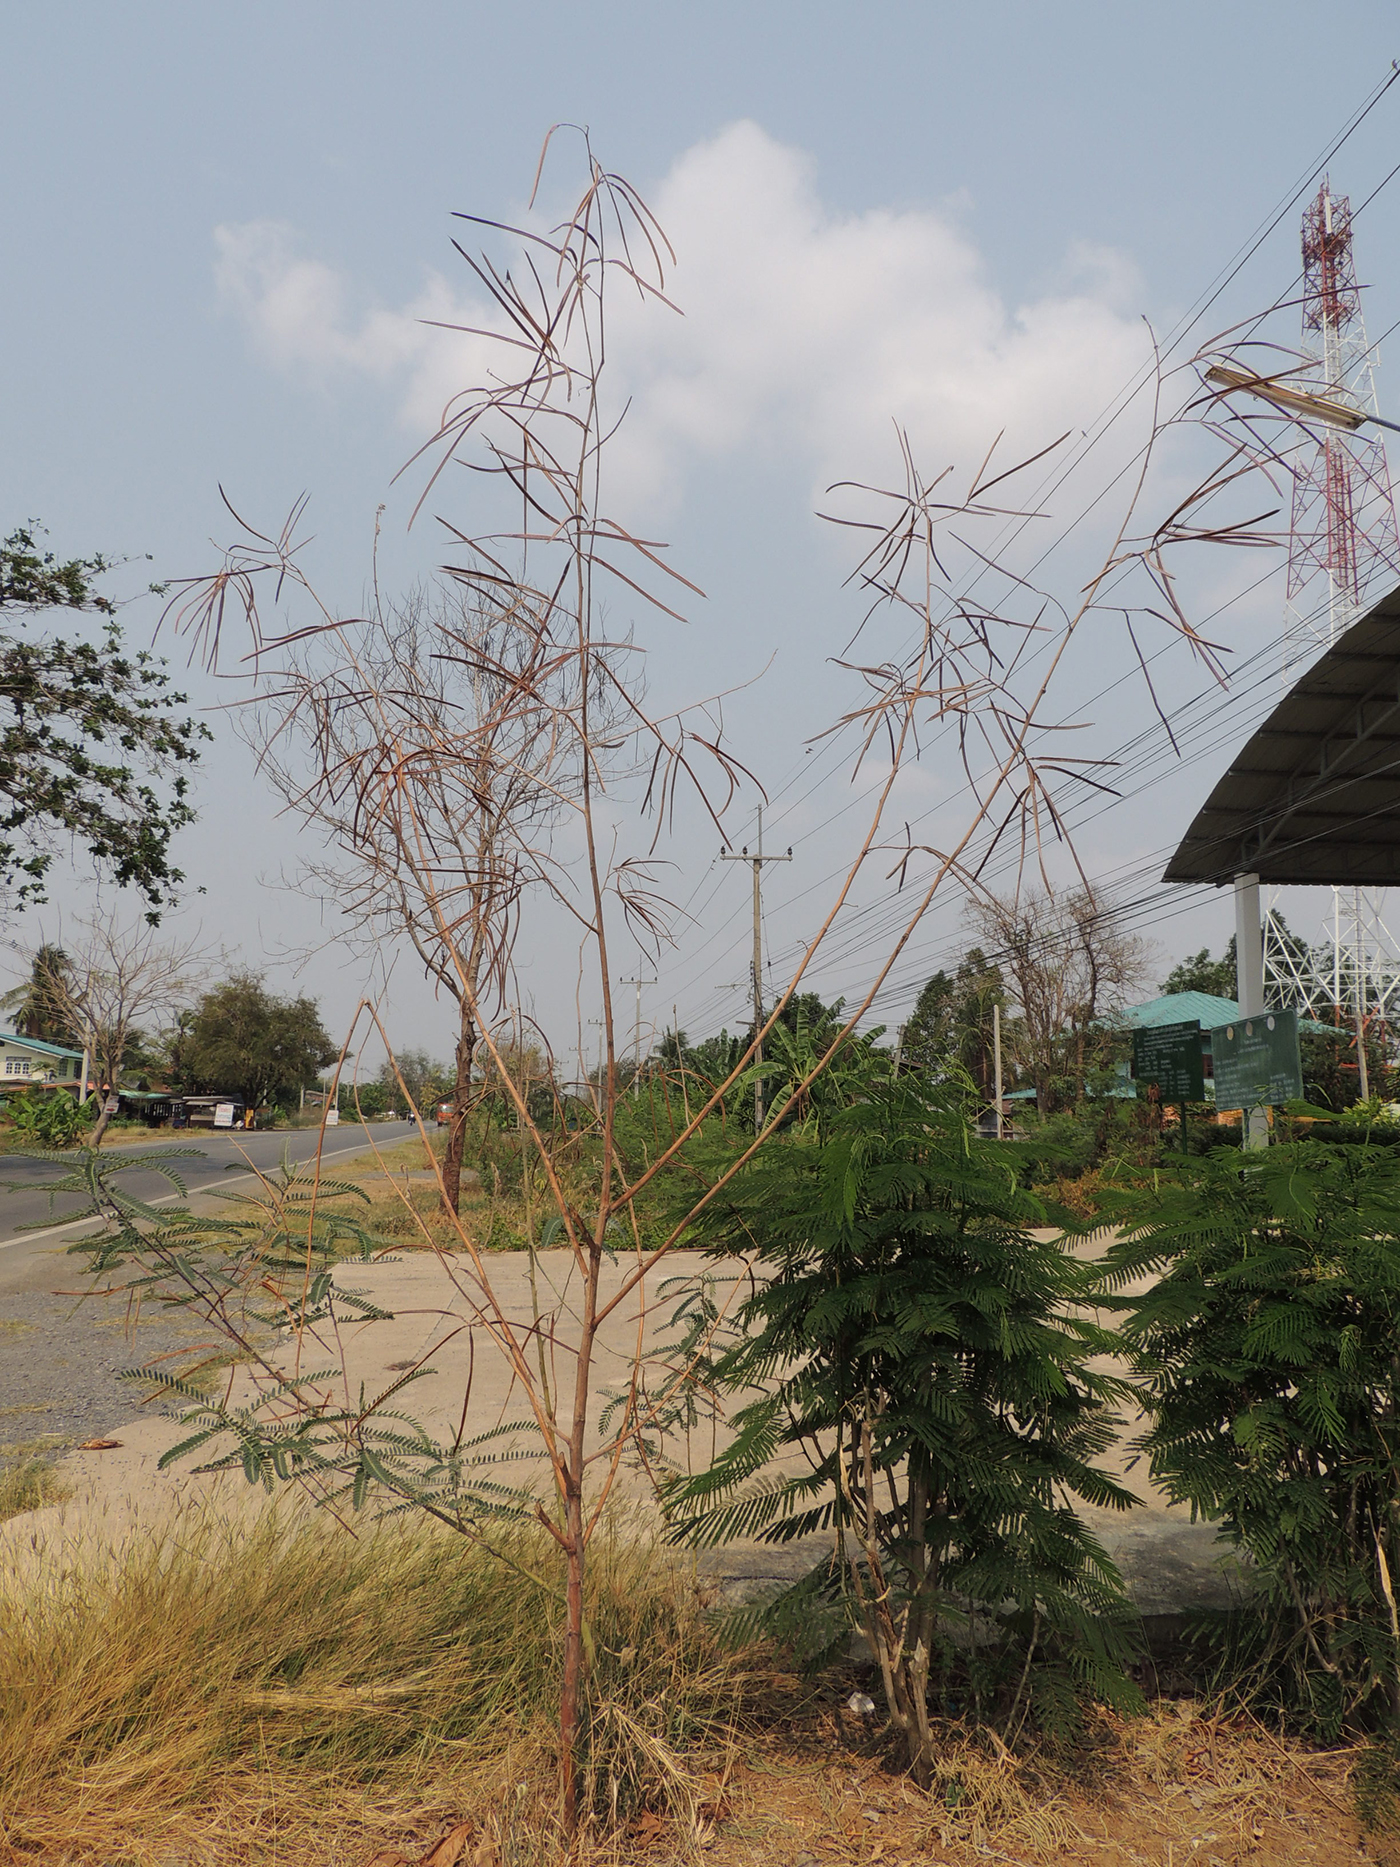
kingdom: Plantae
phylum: Tracheophyta
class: Magnoliopsida
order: Fabales
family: Fabaceae
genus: Sesbania
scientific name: Sesbania speciosa
